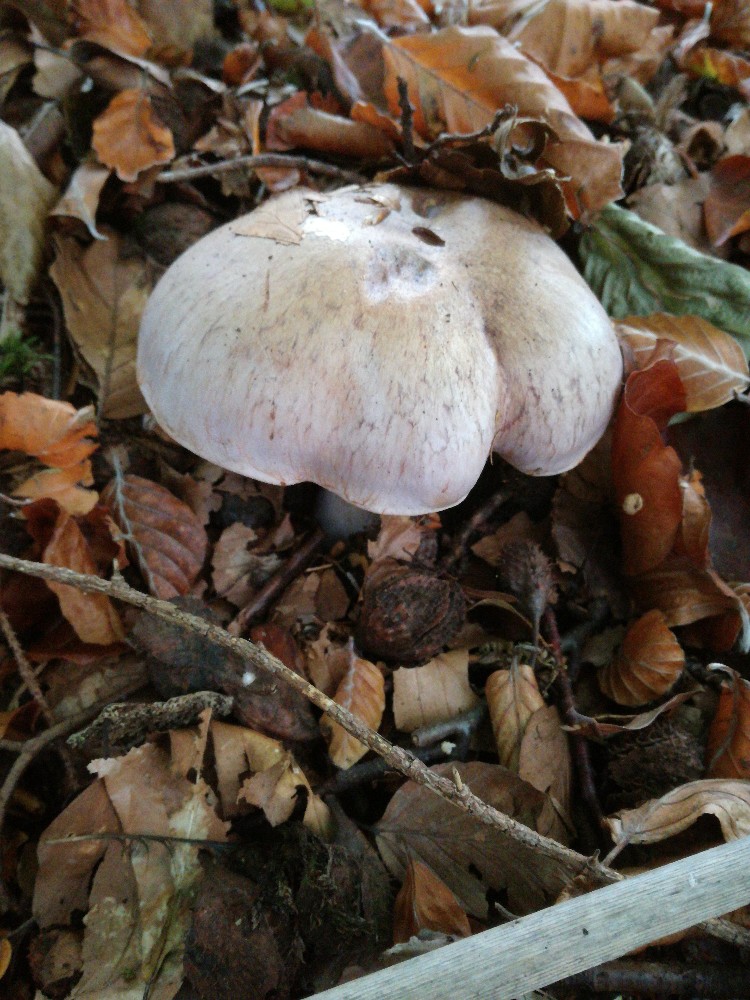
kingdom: Fungi
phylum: Basidiomycota
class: Agaricomycetes
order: Agaricales
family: Cortinariaceae
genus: Cortinarius
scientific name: Cortinarius largus
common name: violetrandet slørhat
